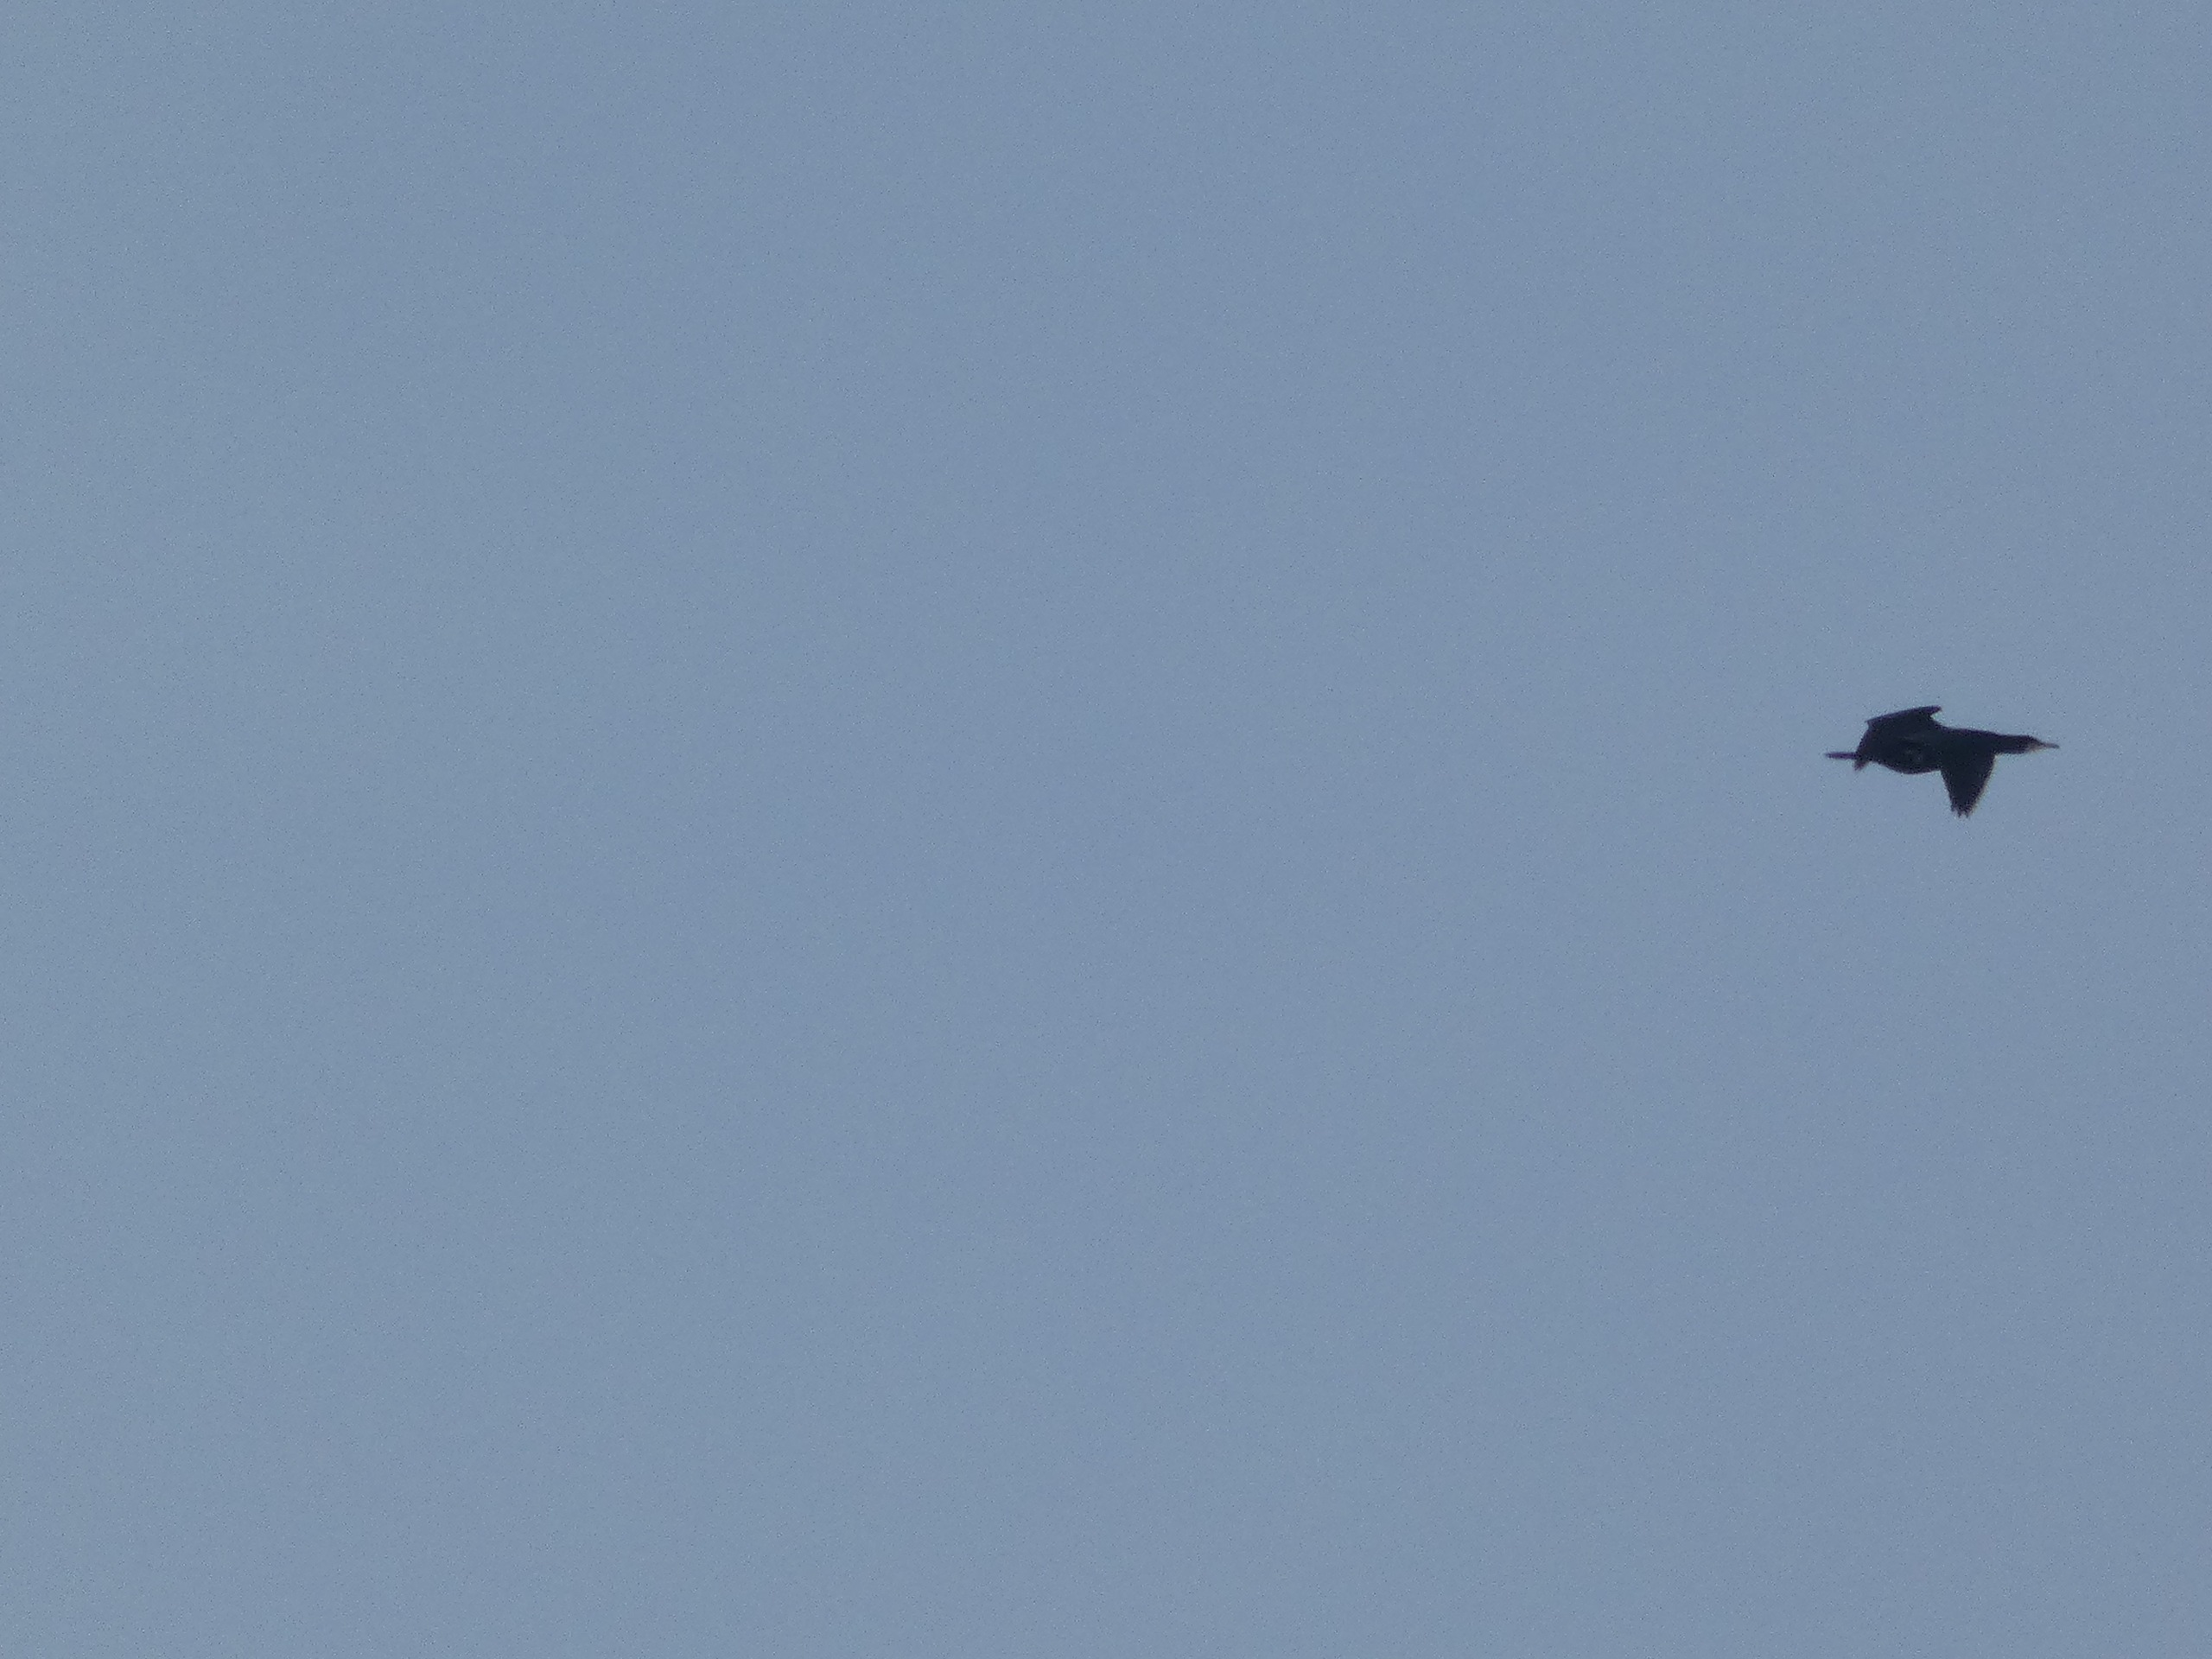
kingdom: Animalia
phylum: Chordata
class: Aves
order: Suliformes
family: Phalacrocoracidae
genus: Phalacrocorax
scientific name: Phalacrocorax carbo
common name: Skarv
